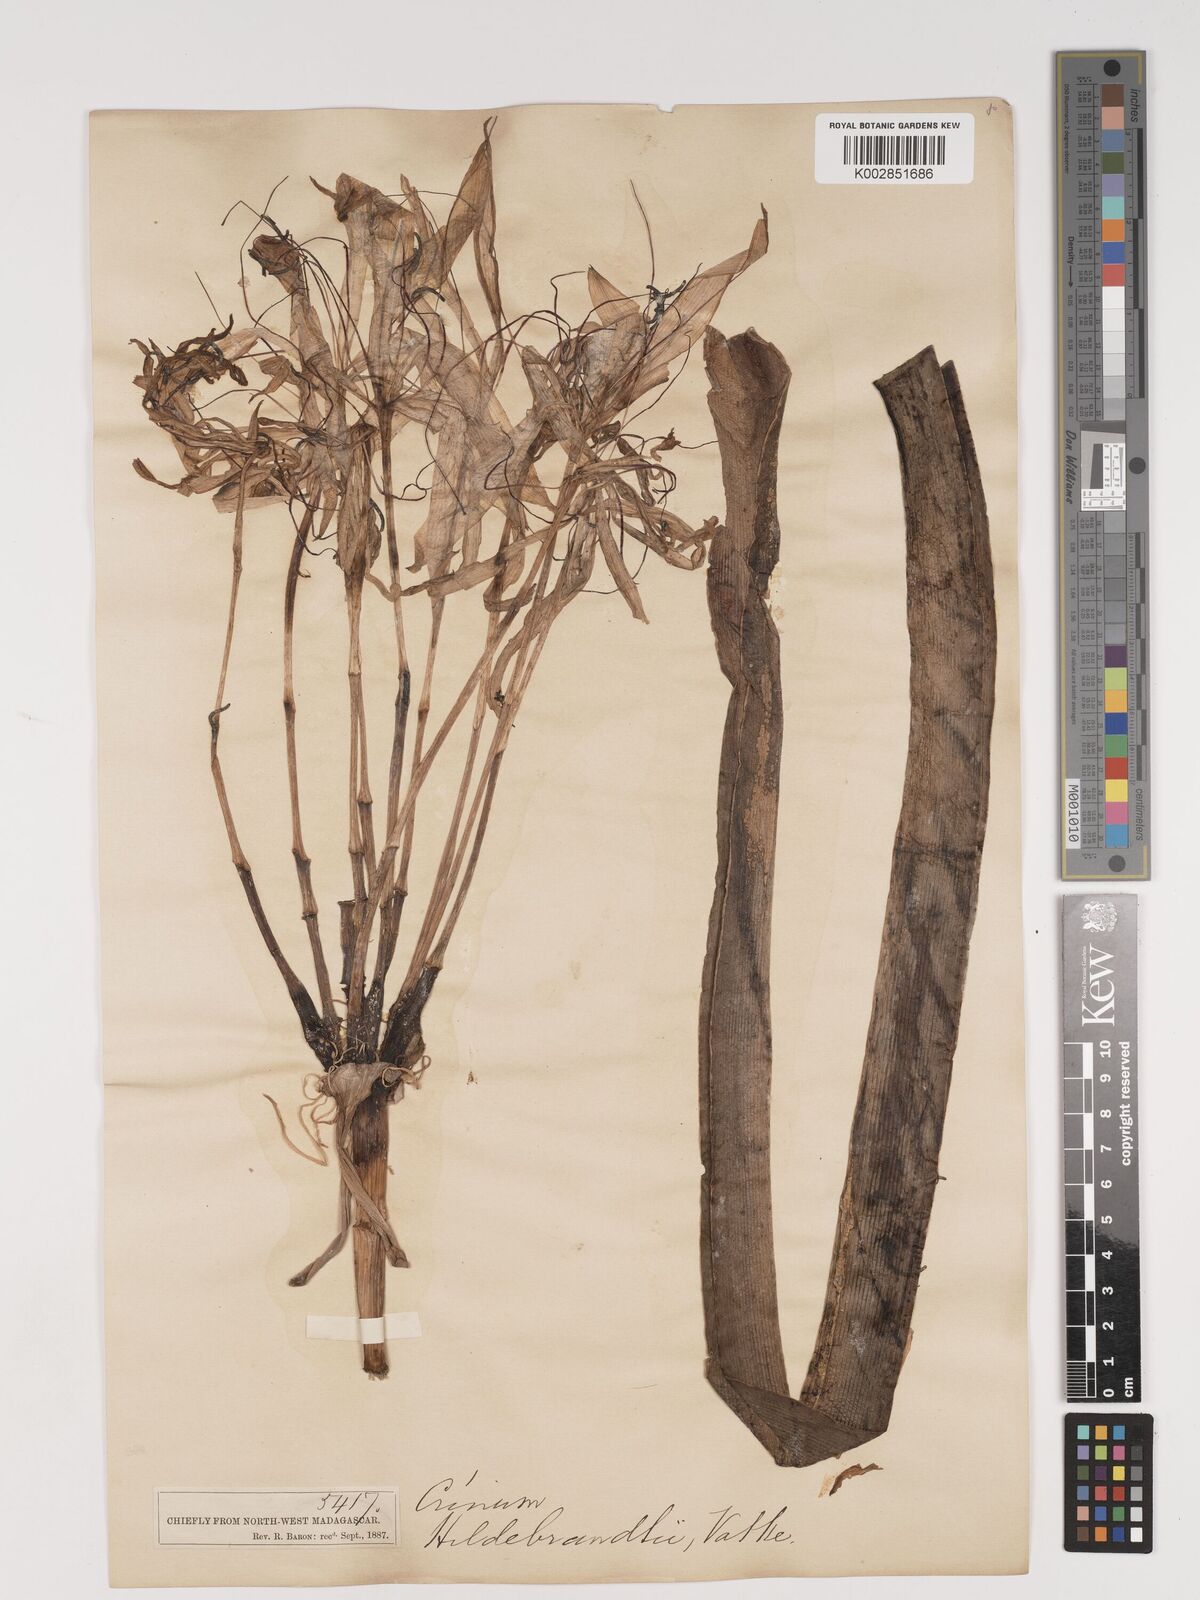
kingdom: Plantae
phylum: Tracheophyta
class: Liliopsida
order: Asparagales
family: Amaryllidaceae
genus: Crinum
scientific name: Crinum hildebrandtii
